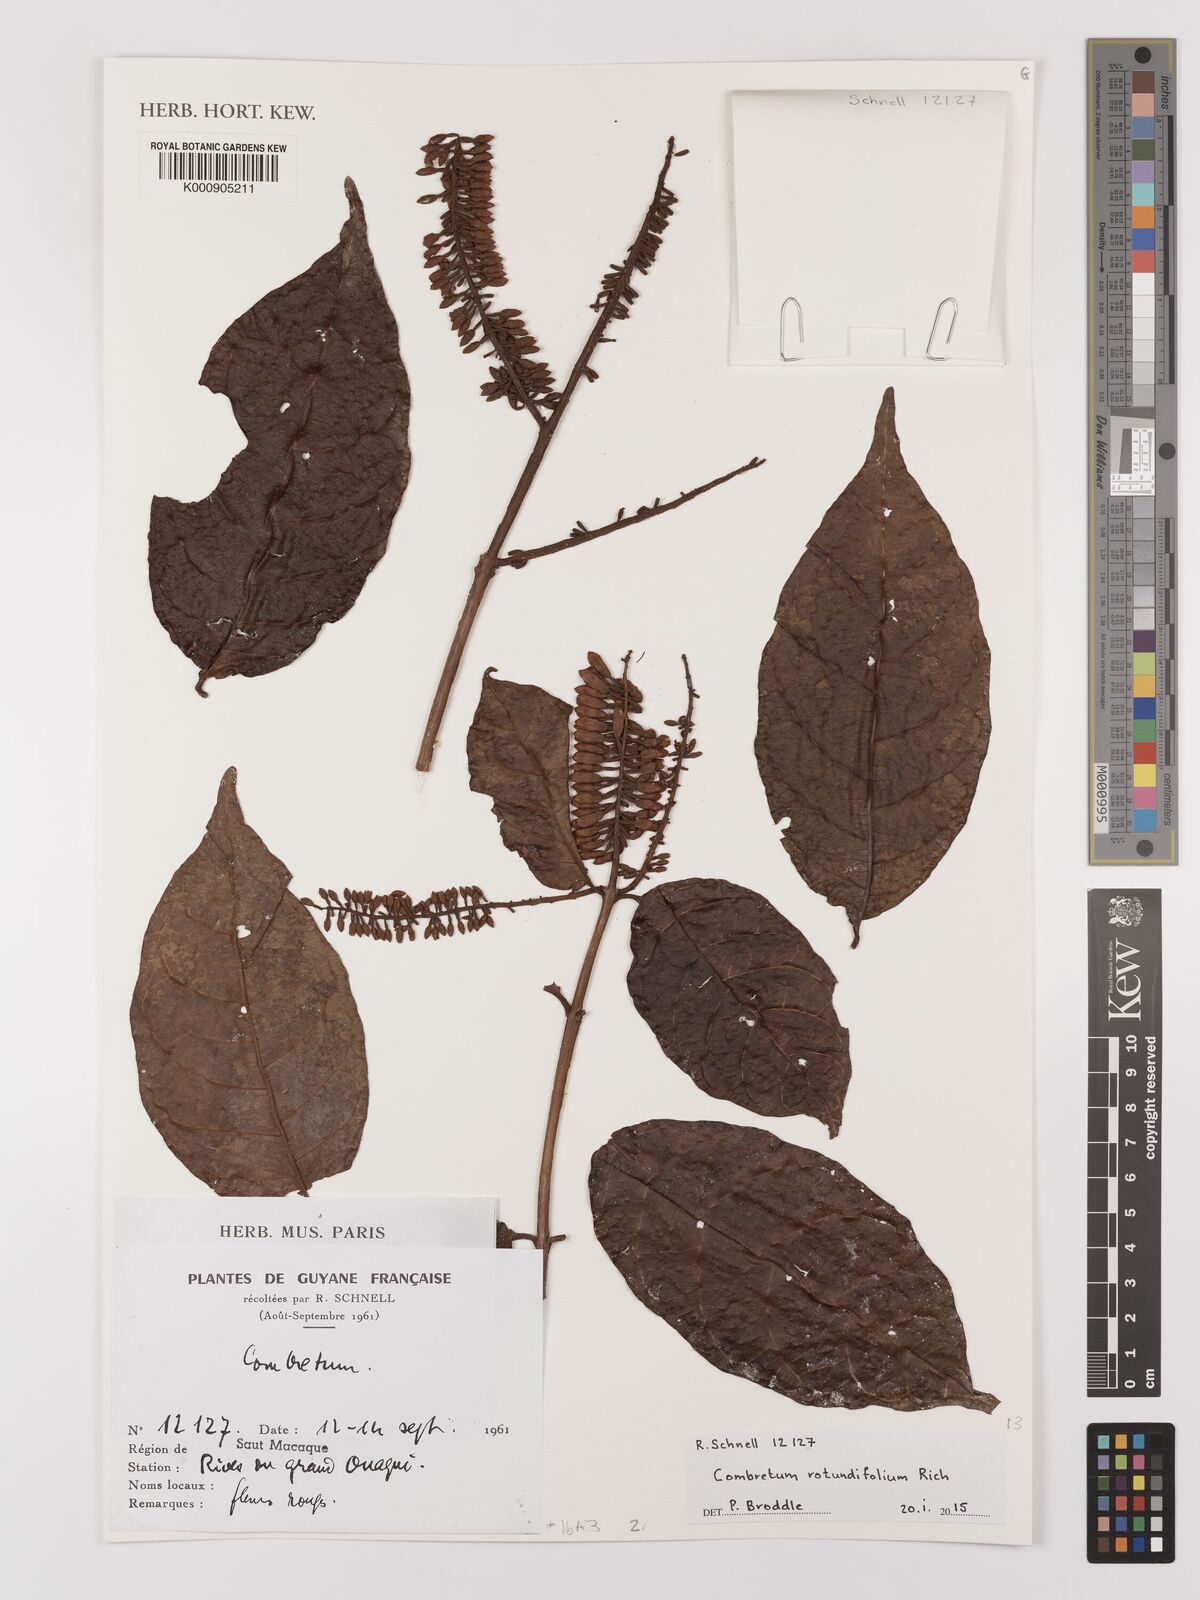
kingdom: Plantae
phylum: Tracheophyta
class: Magnoliopsida
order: Myrtales
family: Combretaceae
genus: Combretum
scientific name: Combretum rotundifolium
